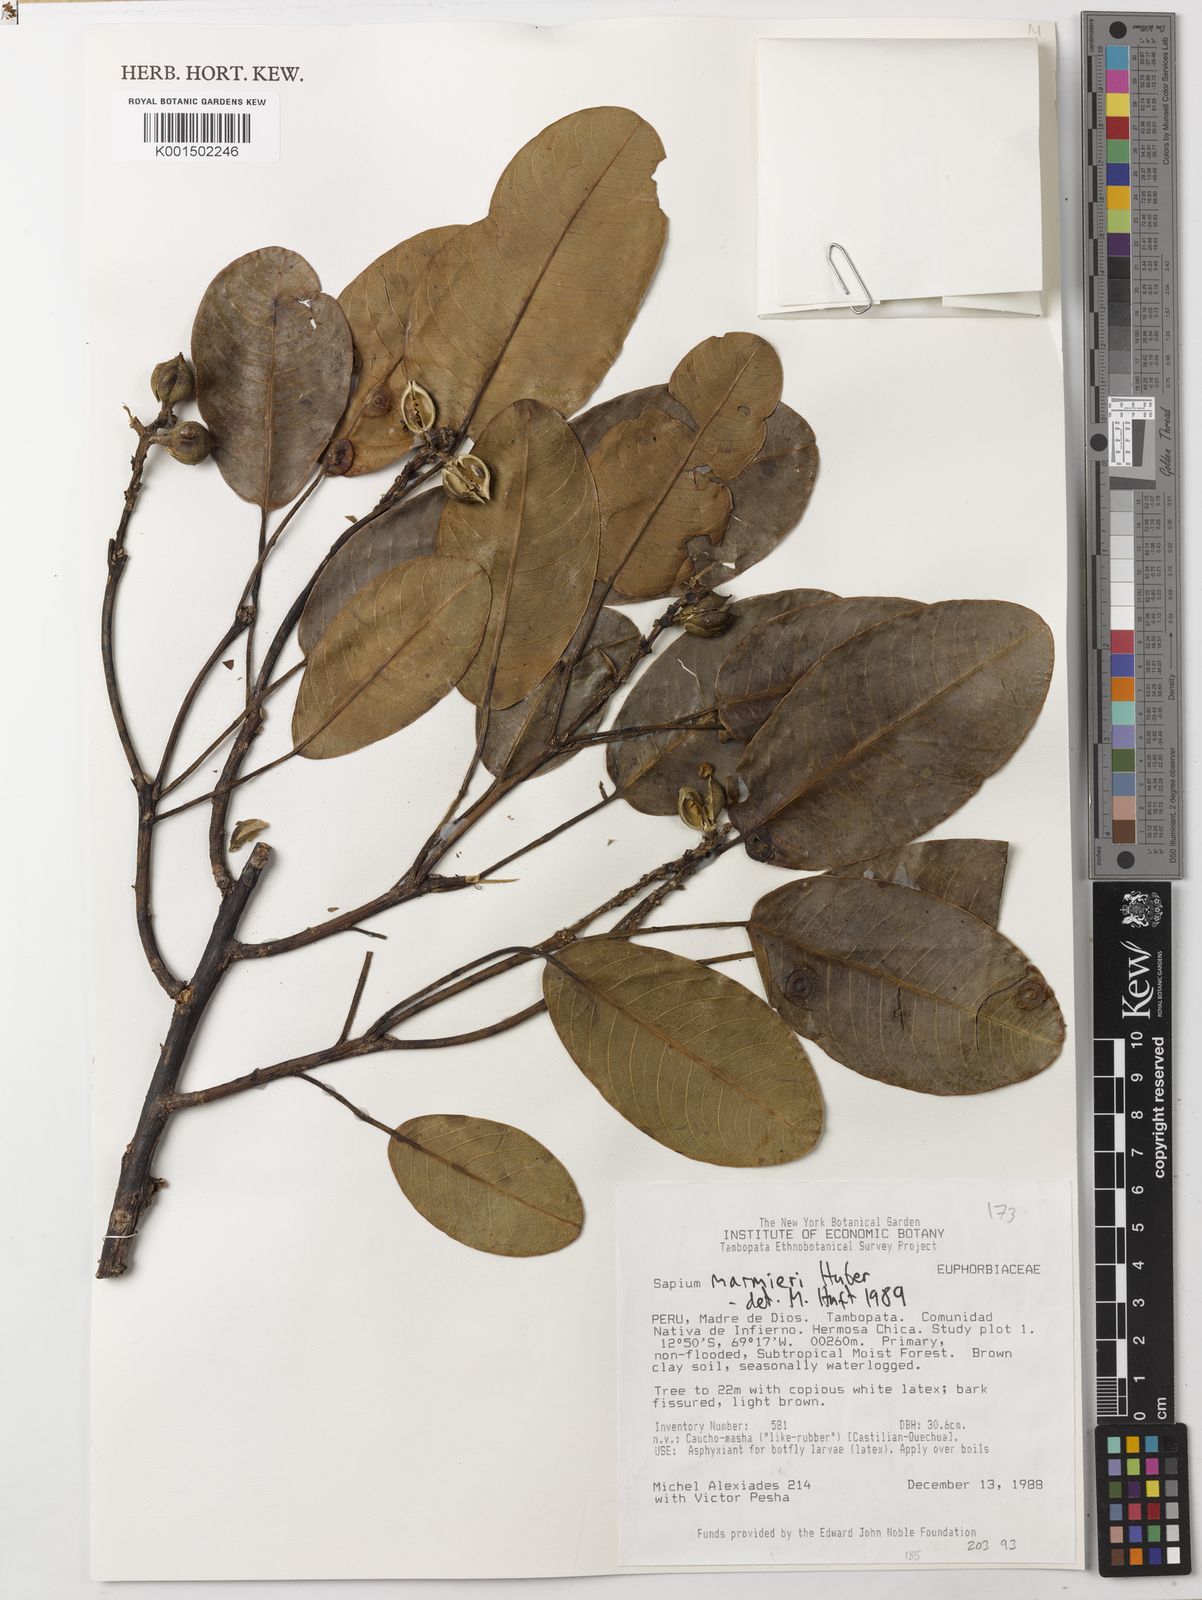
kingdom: Plantae
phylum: Tracheophyta
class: Magnoliopsida
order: Malpighiales
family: Euphorbiaceae
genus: Sapium
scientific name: Sapium marmieri
